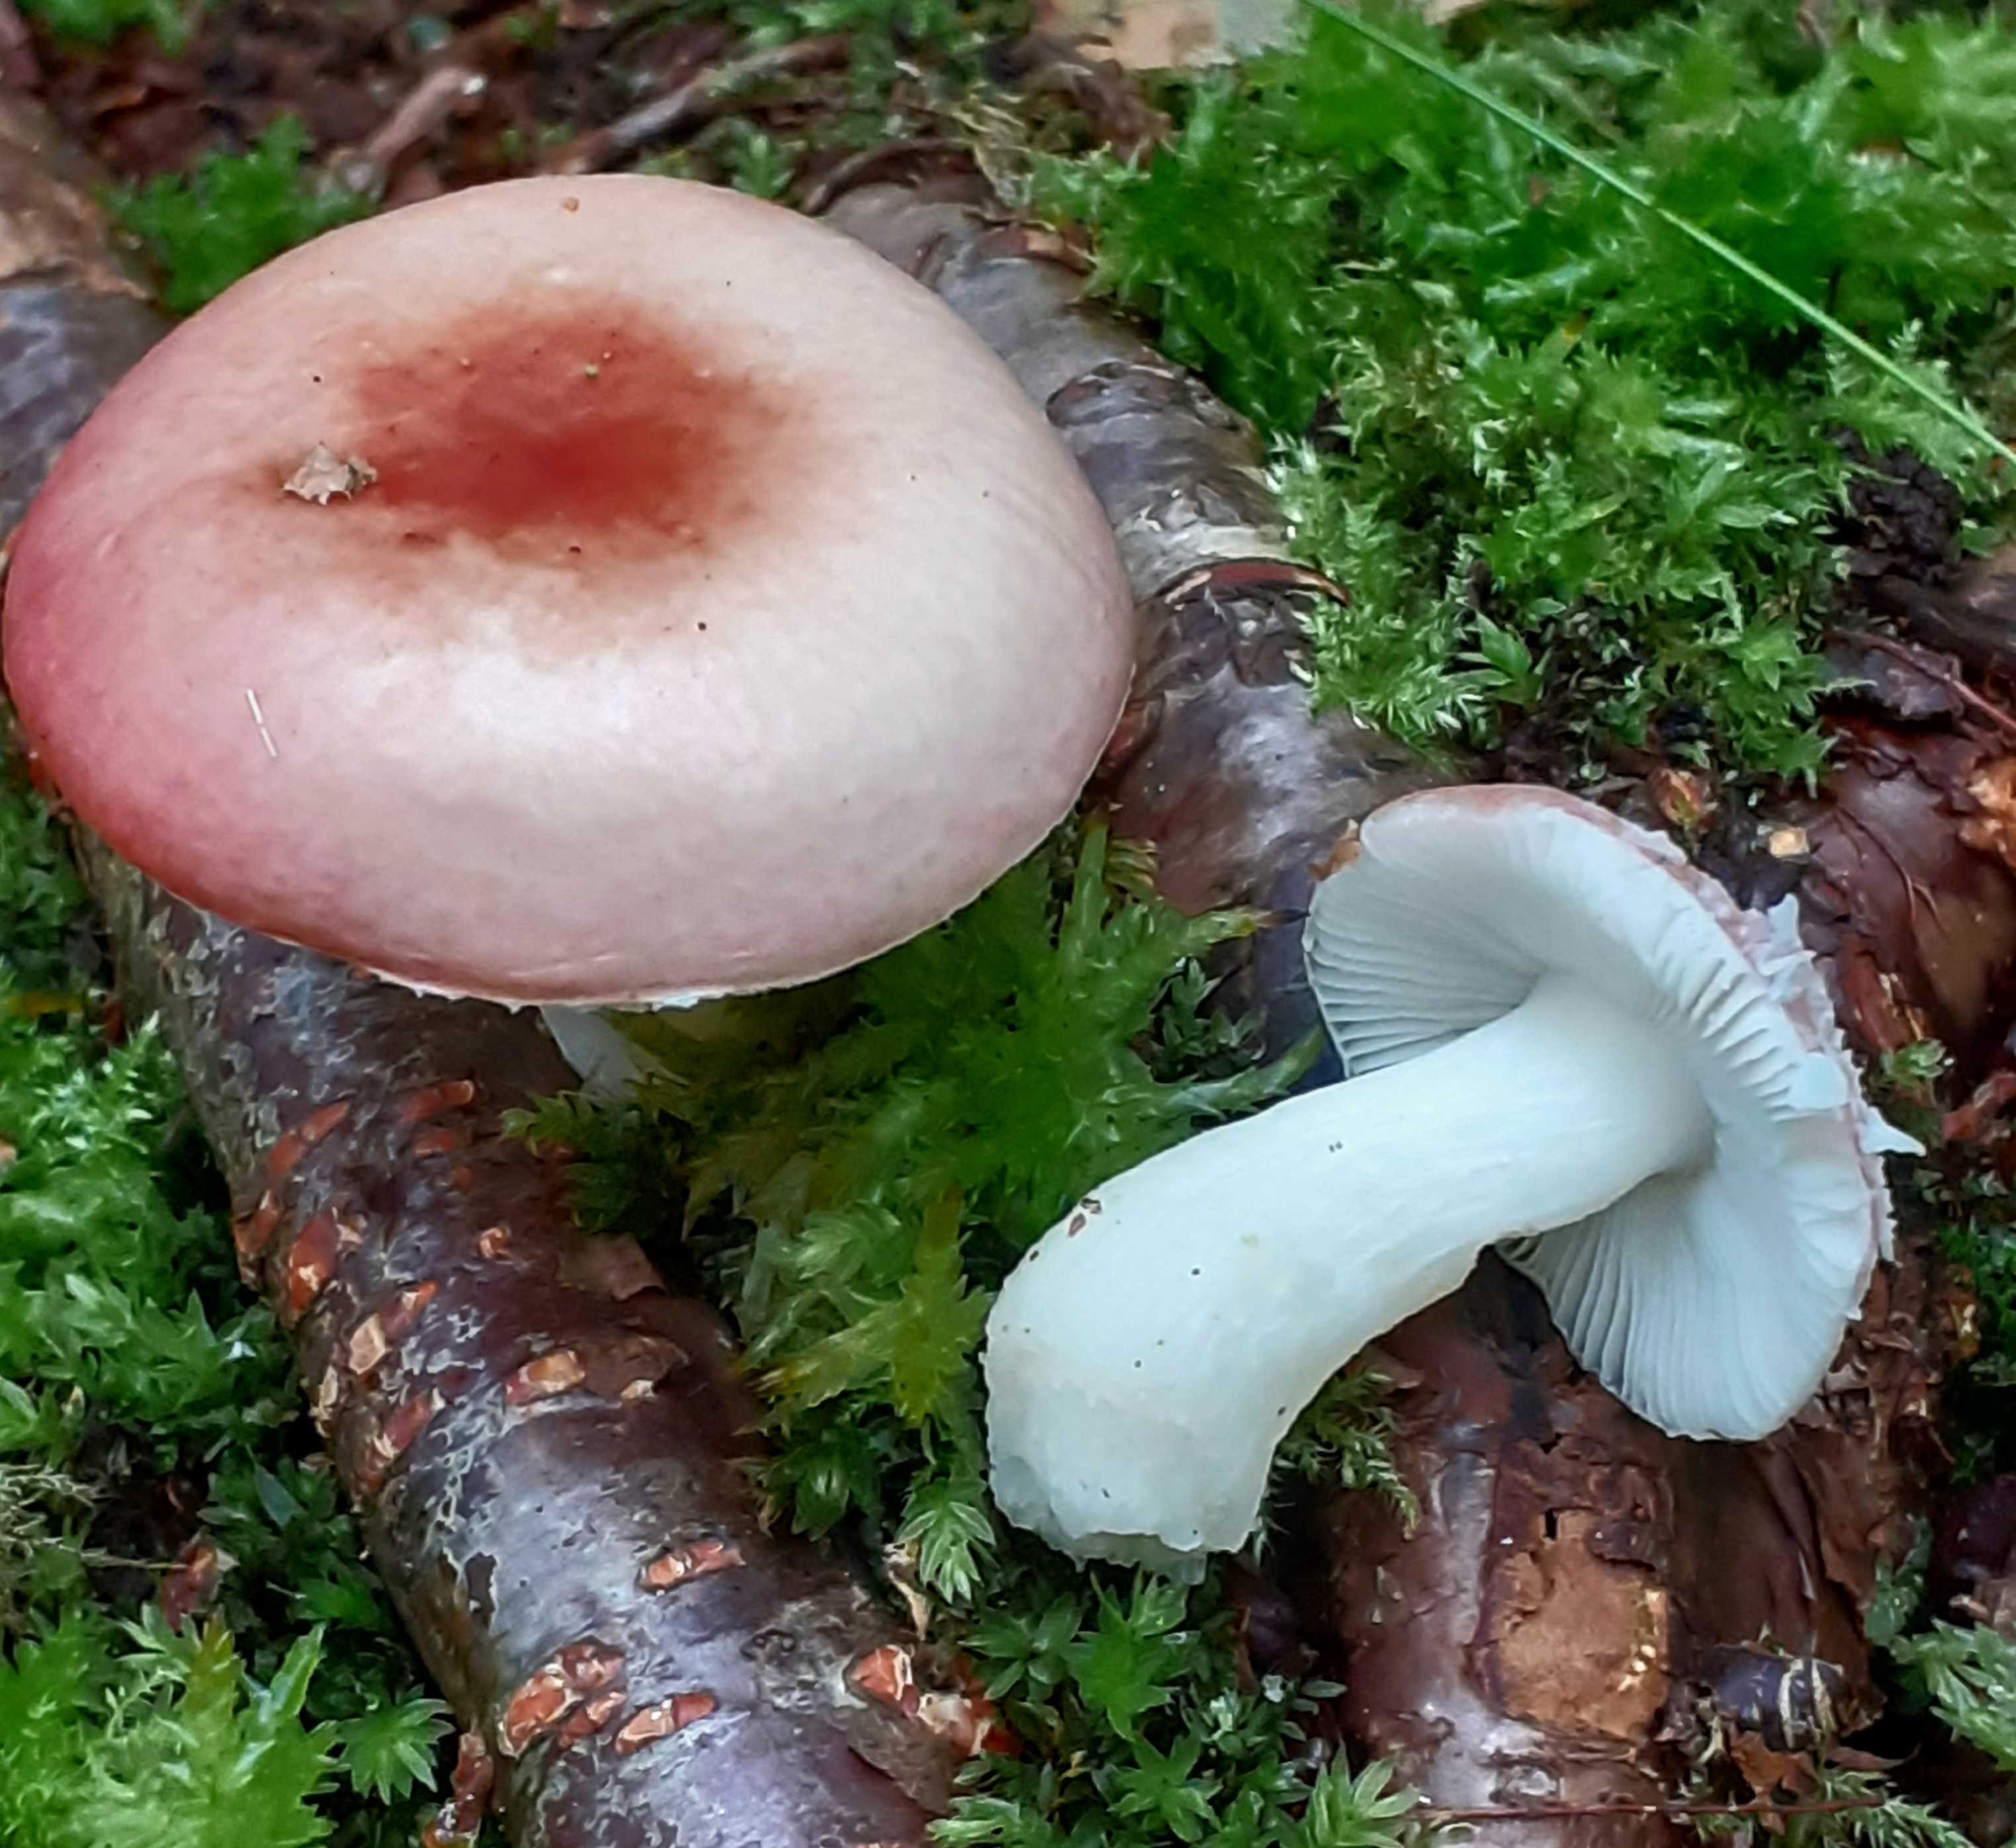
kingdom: Fungi
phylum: Basidiomycota
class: Agaricomycetes
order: Russulales
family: Russulaceae
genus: Russula
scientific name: Russula betularum
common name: bleg gift-skørhat
